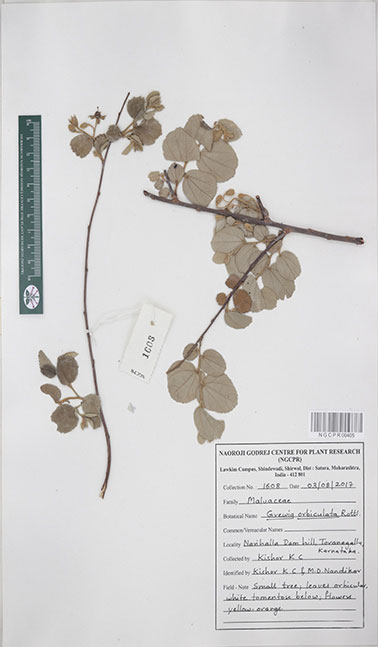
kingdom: Plantae
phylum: Tracheophyta
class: Magnoliopsida
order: Malvales
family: Malvaceae
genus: Grewia
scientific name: Grewia orbiculata
